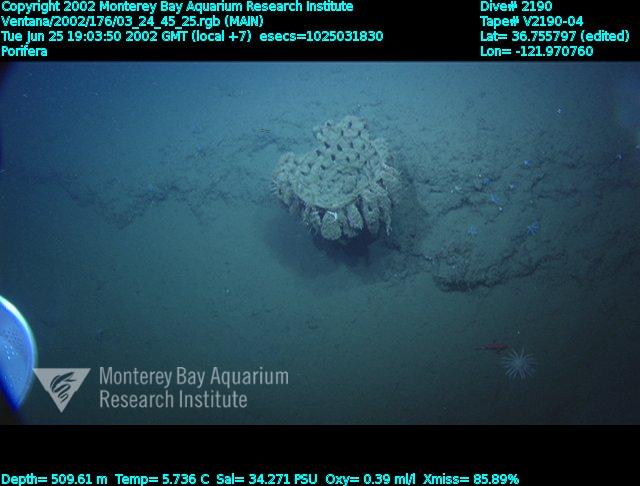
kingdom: Animalia
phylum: Porifera
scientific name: Porifera
